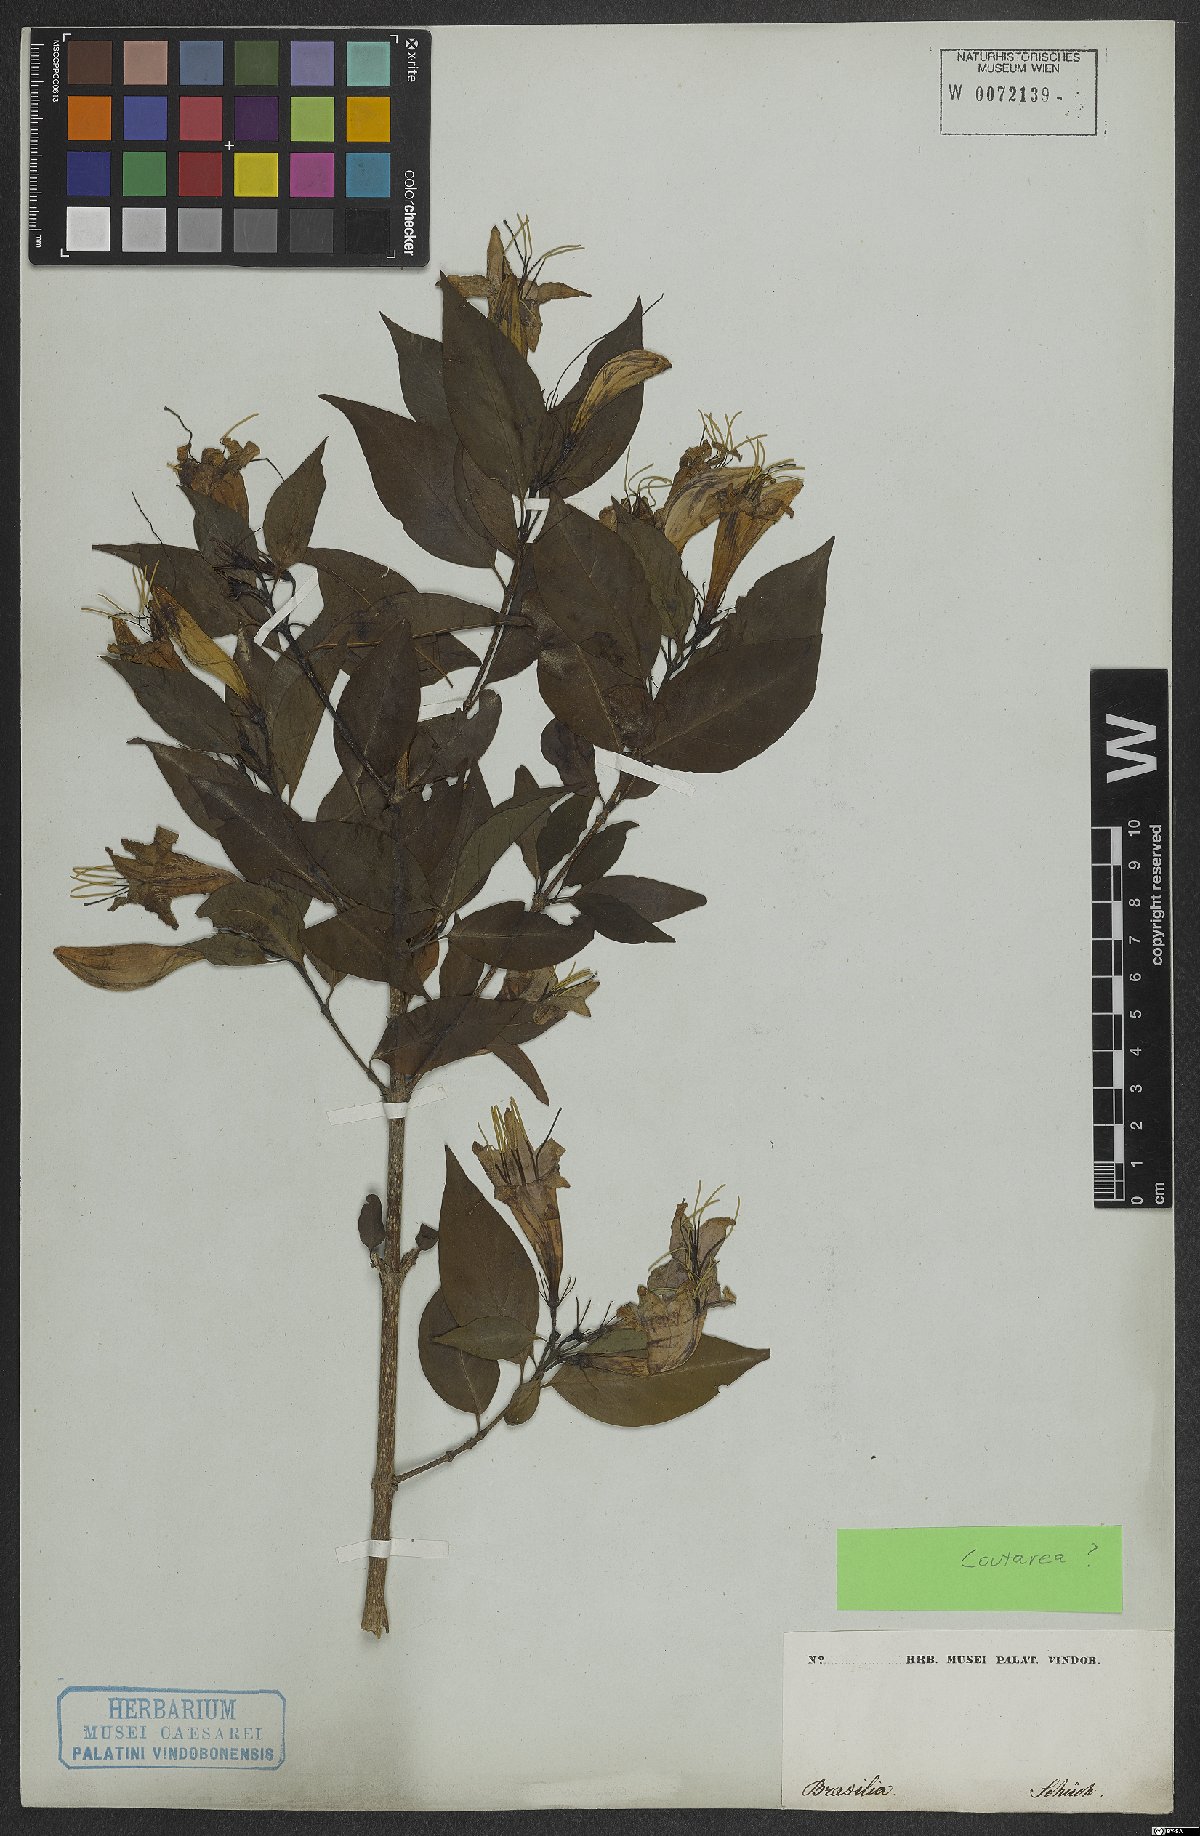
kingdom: Plantae
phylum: Tracheophyta
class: Magnoliopsida
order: Gentianales
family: Rubiaceae
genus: Coutarea
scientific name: Coutarea
